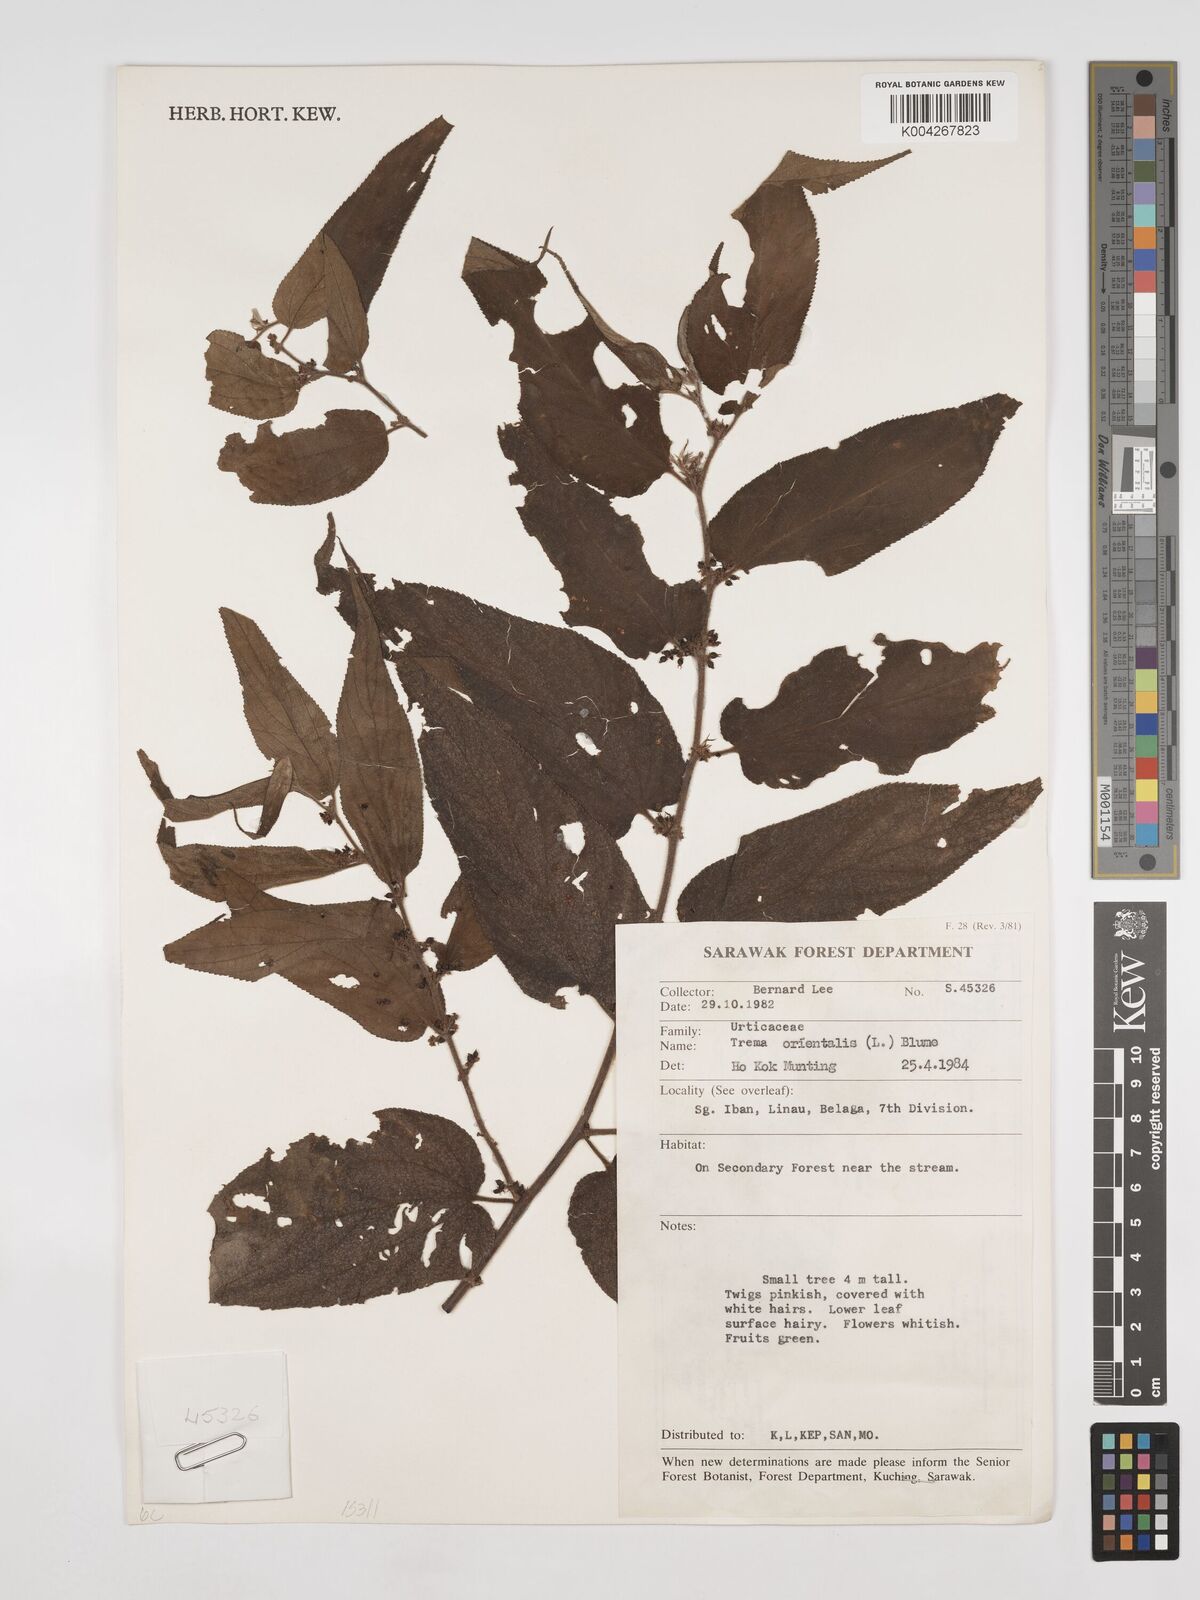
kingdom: Plantae
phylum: Tracheophyta
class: Magnoliopsida
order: Rosales
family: Cannabaceae
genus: Trema
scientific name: Trema orientale
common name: Indian charcoal tree
